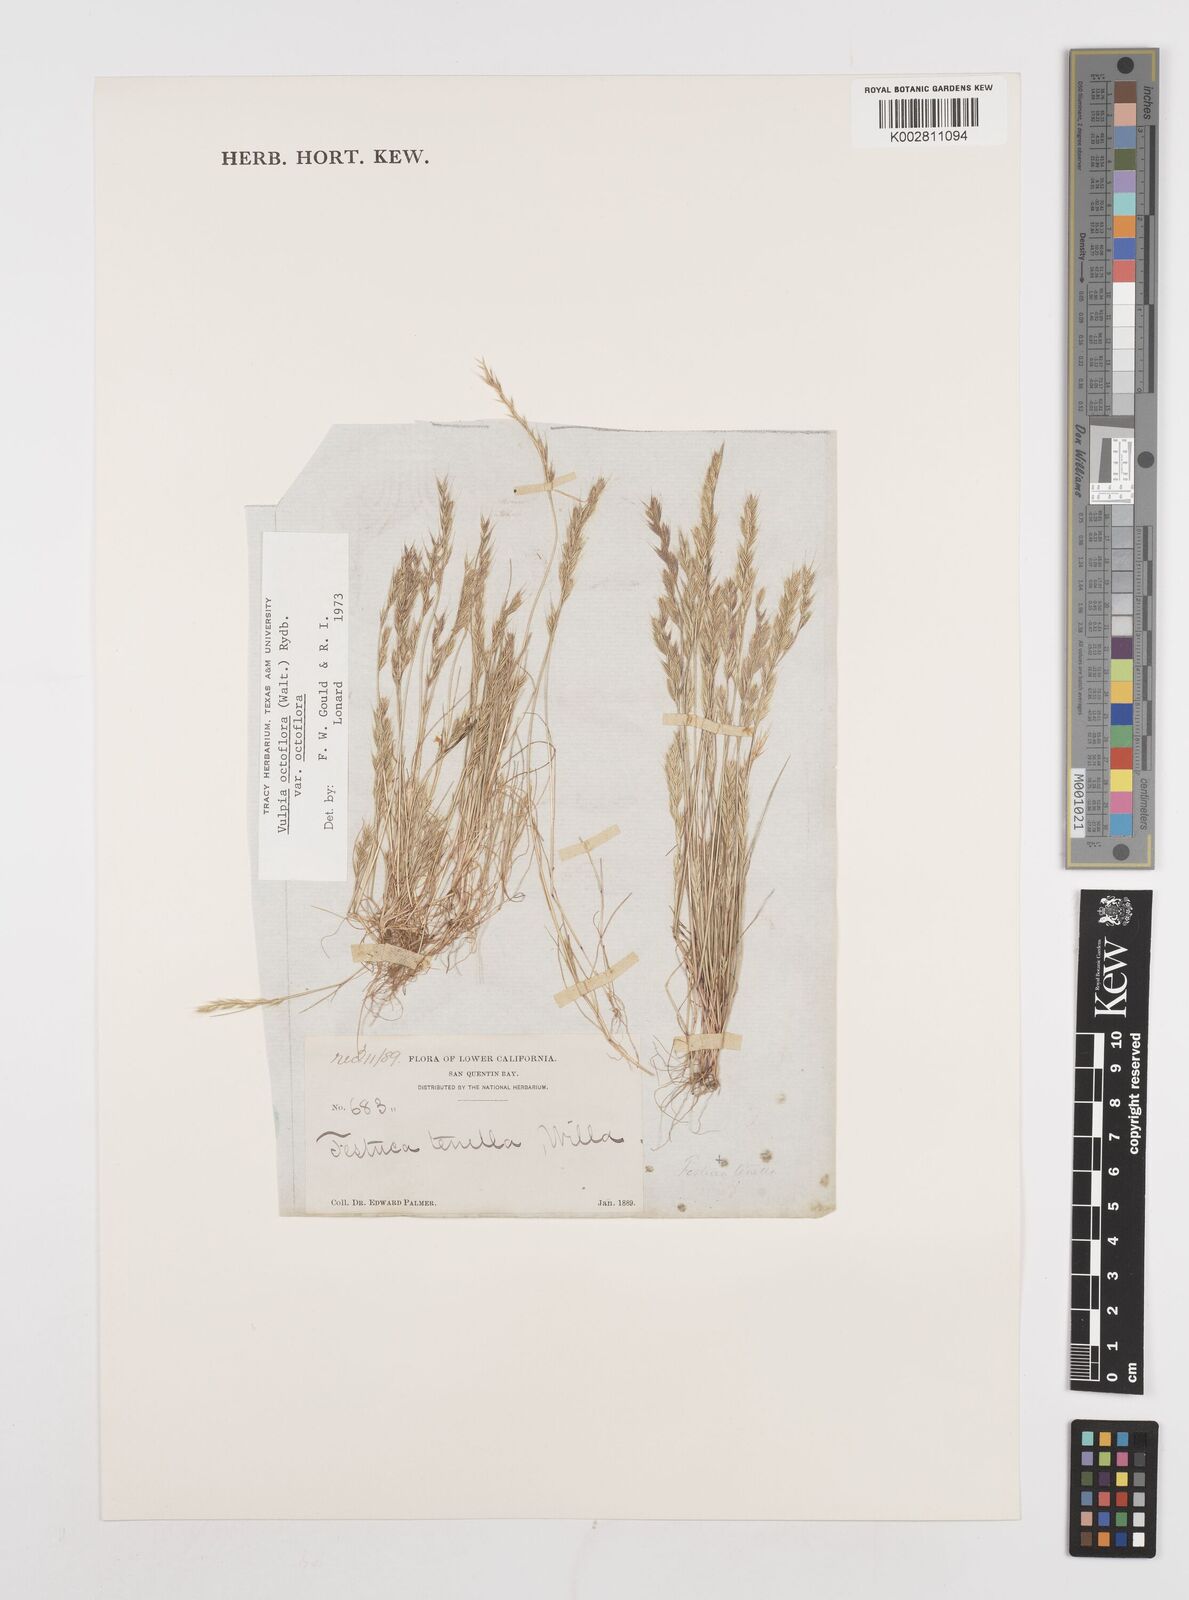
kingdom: Plantae
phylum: Tracheophyta
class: Liliopsida
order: Poales
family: Poaceae
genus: Festuca
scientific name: Festuca octoflora
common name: Sixweeks grass
